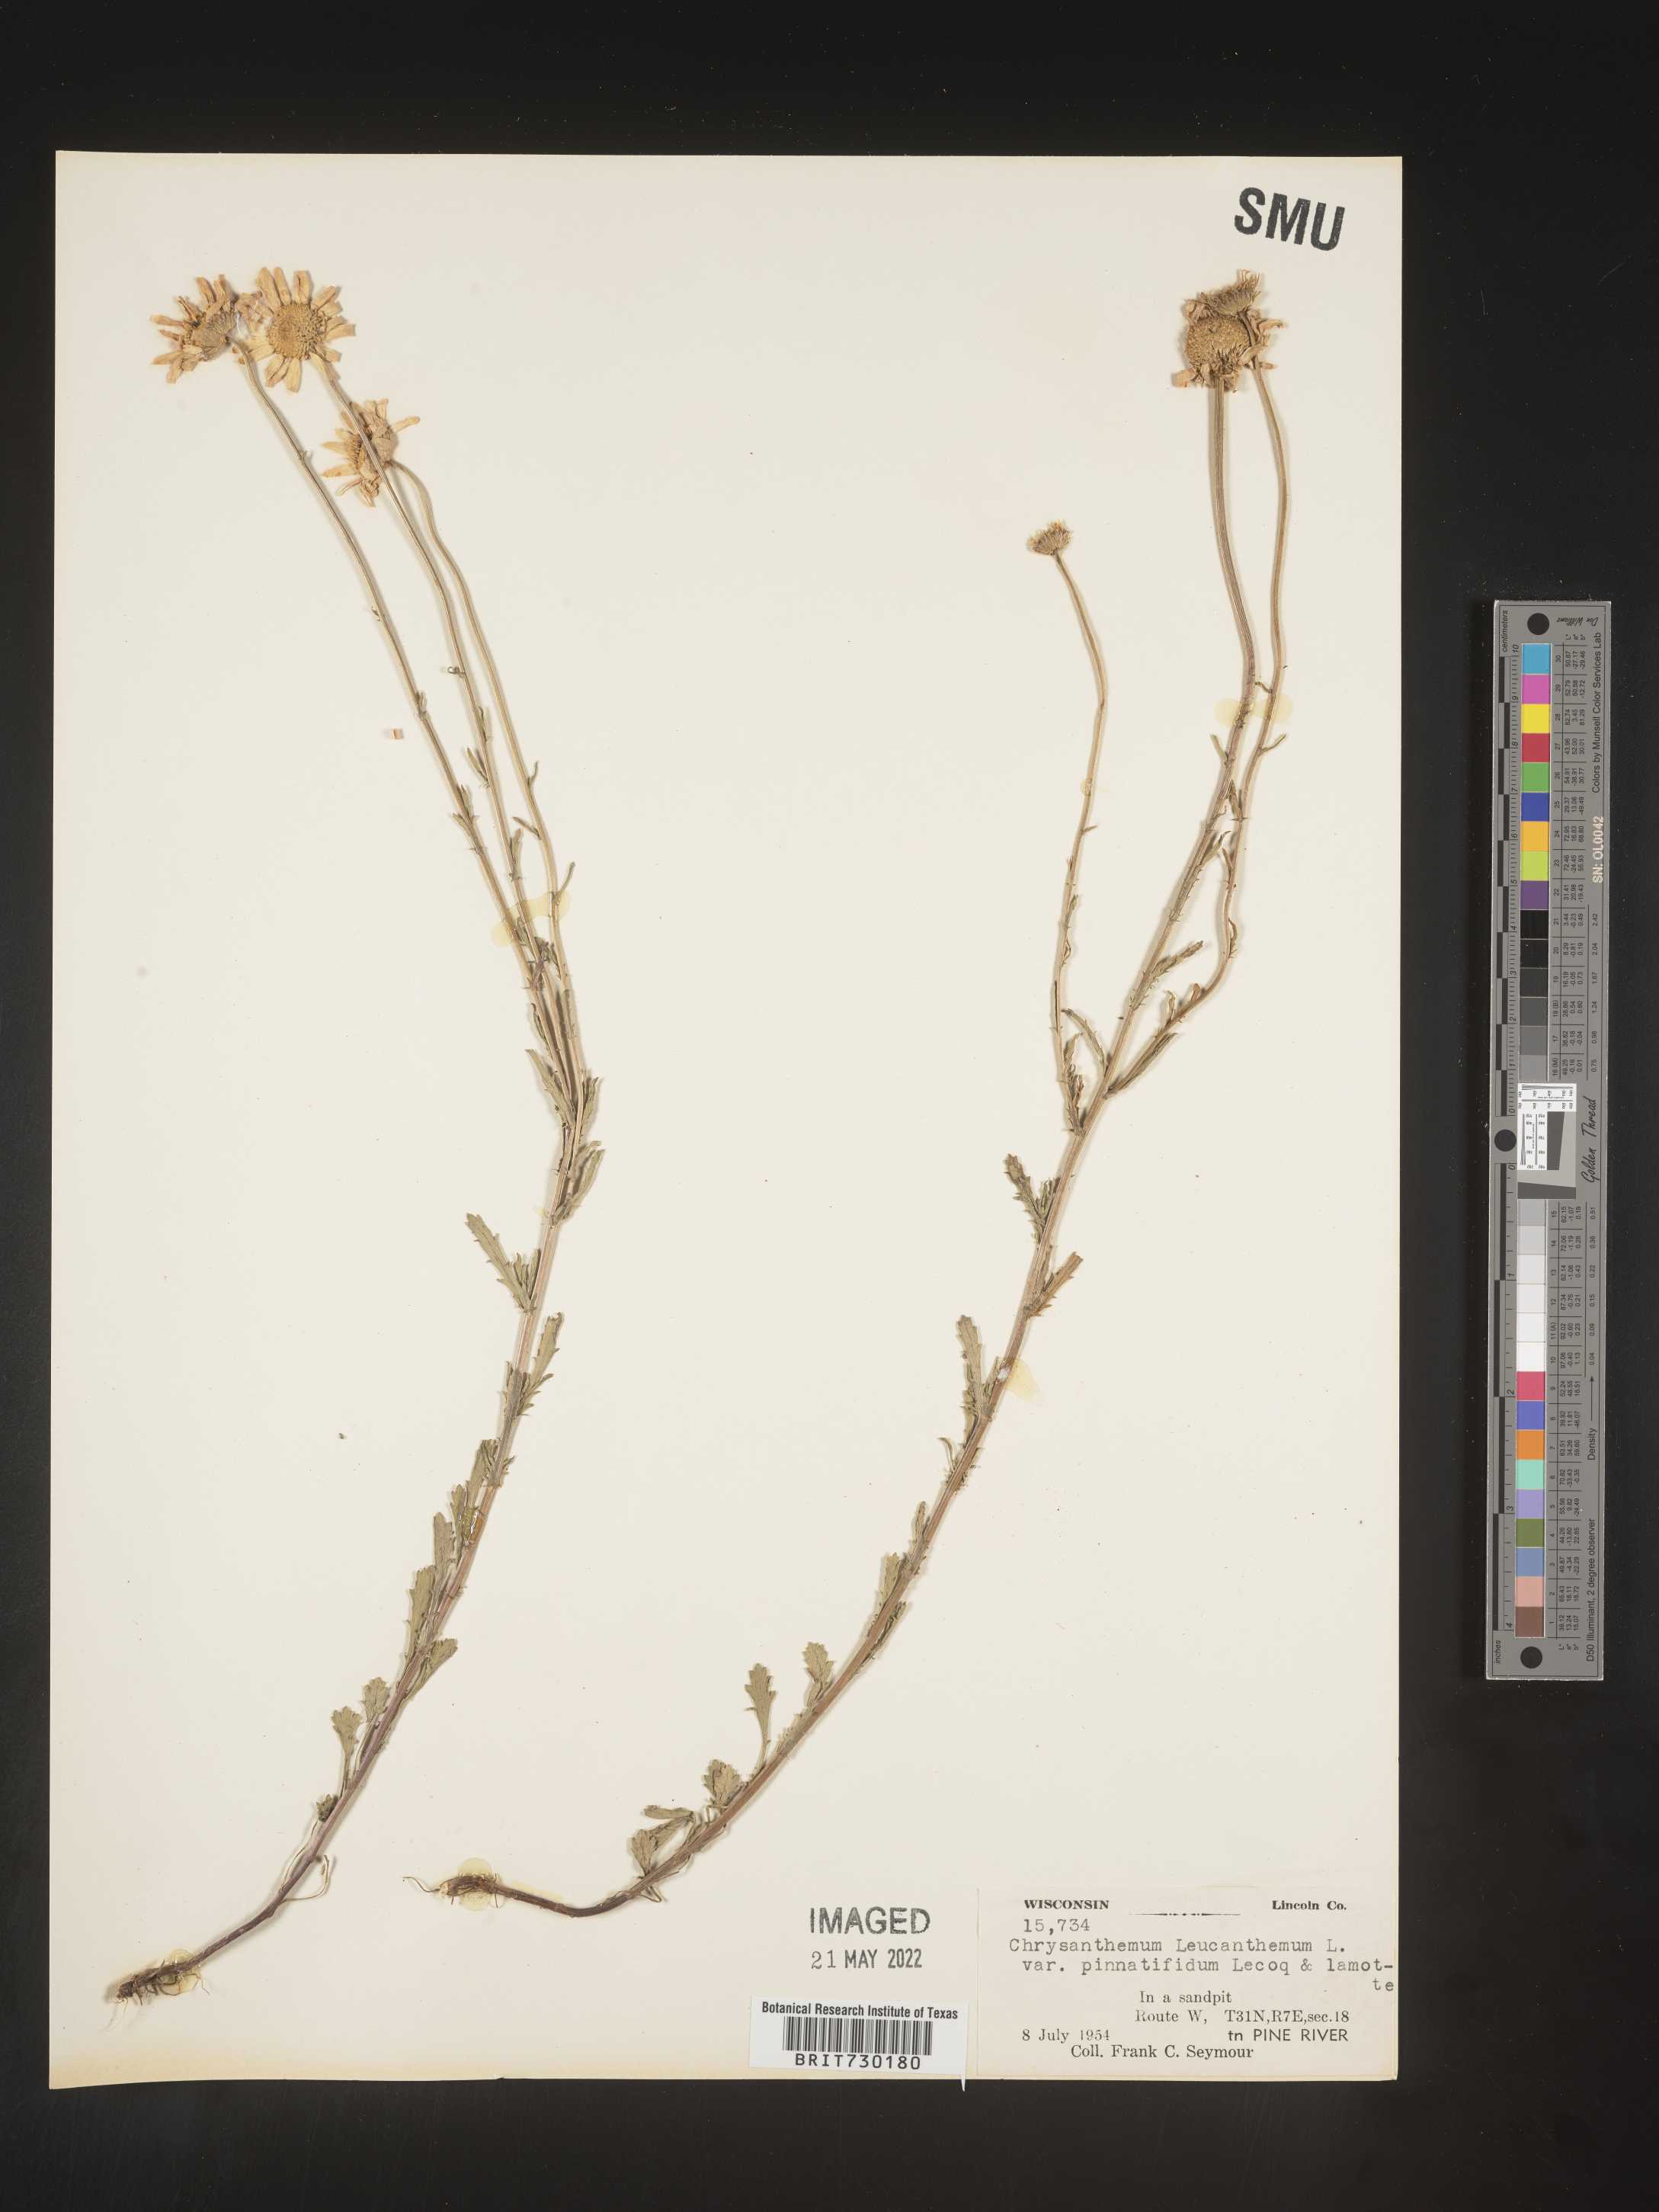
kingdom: Plantae
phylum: Tracheophyta
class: Magnoliopsida
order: Asterales
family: Asteraceae
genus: Leucanthemum
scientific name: Leucanthemum vulgare
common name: Oxeye daisy
